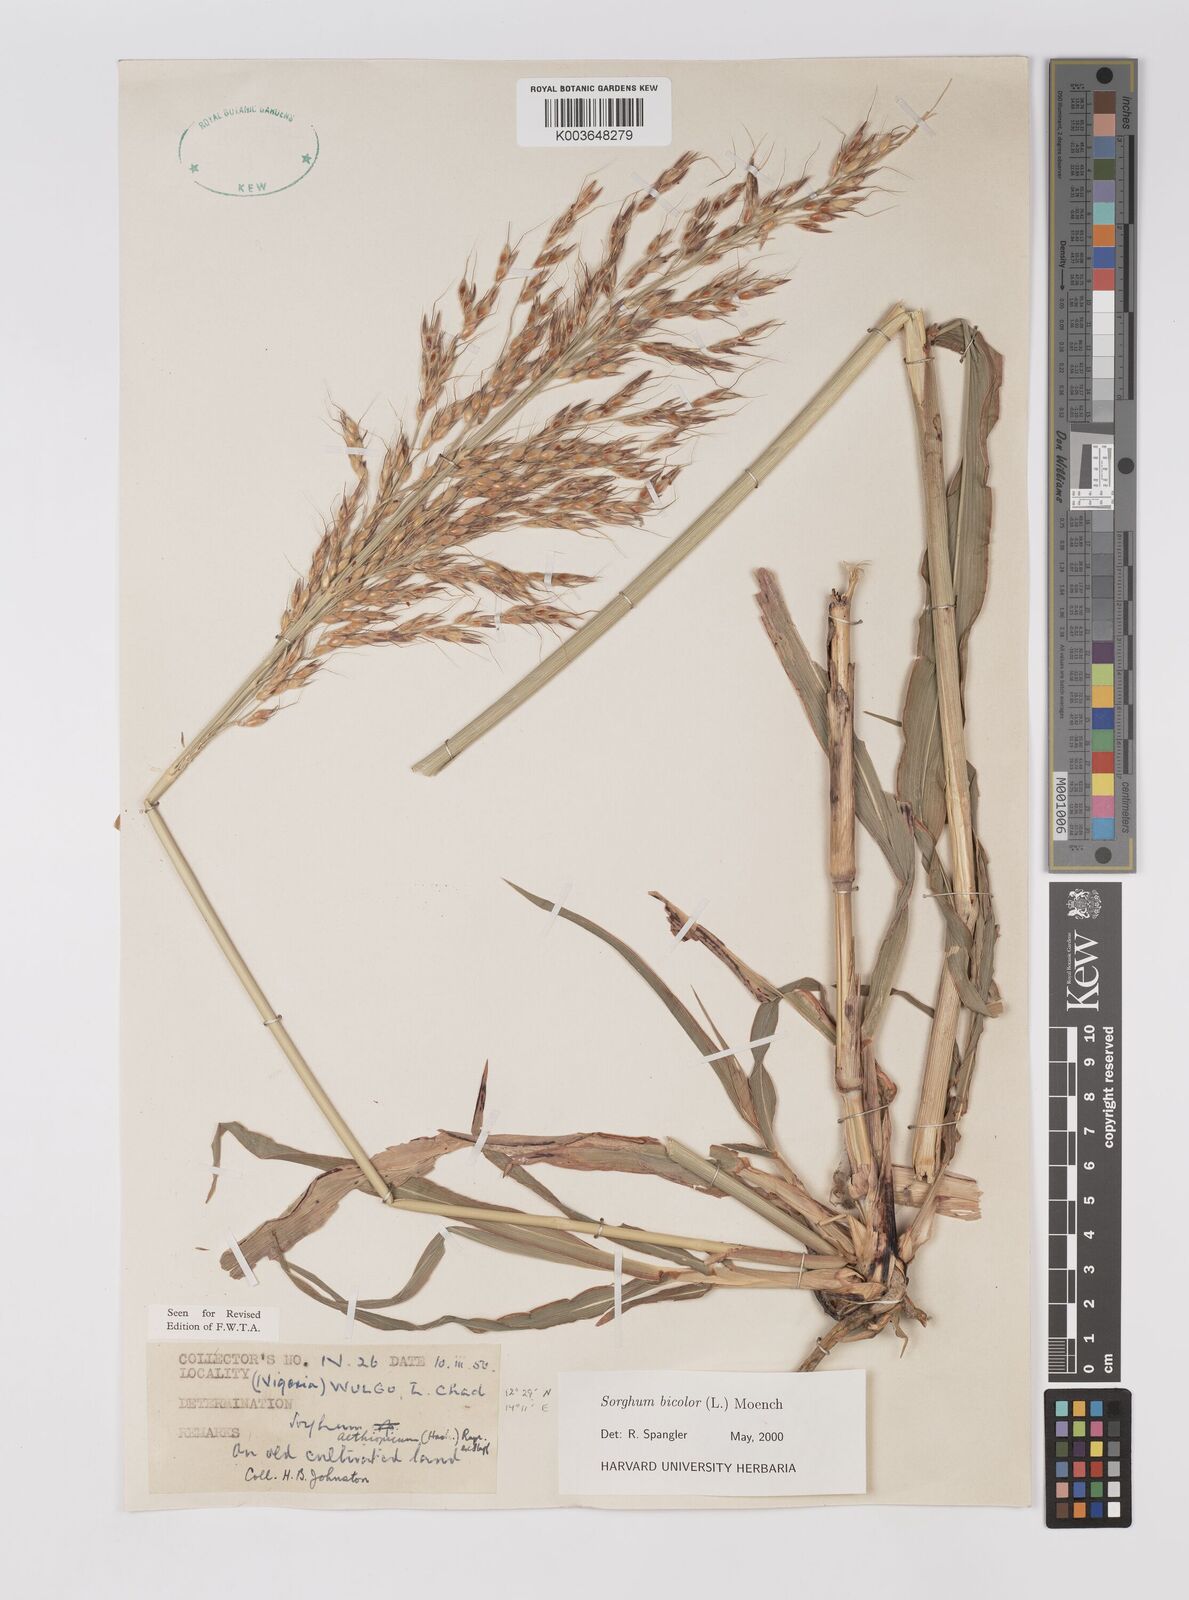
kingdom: Plantae
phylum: Tracheophyta
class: Liliopsida
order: Poales
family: Poaceae
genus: Sorghum
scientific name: Sorghum bicolor
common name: Sorghum
